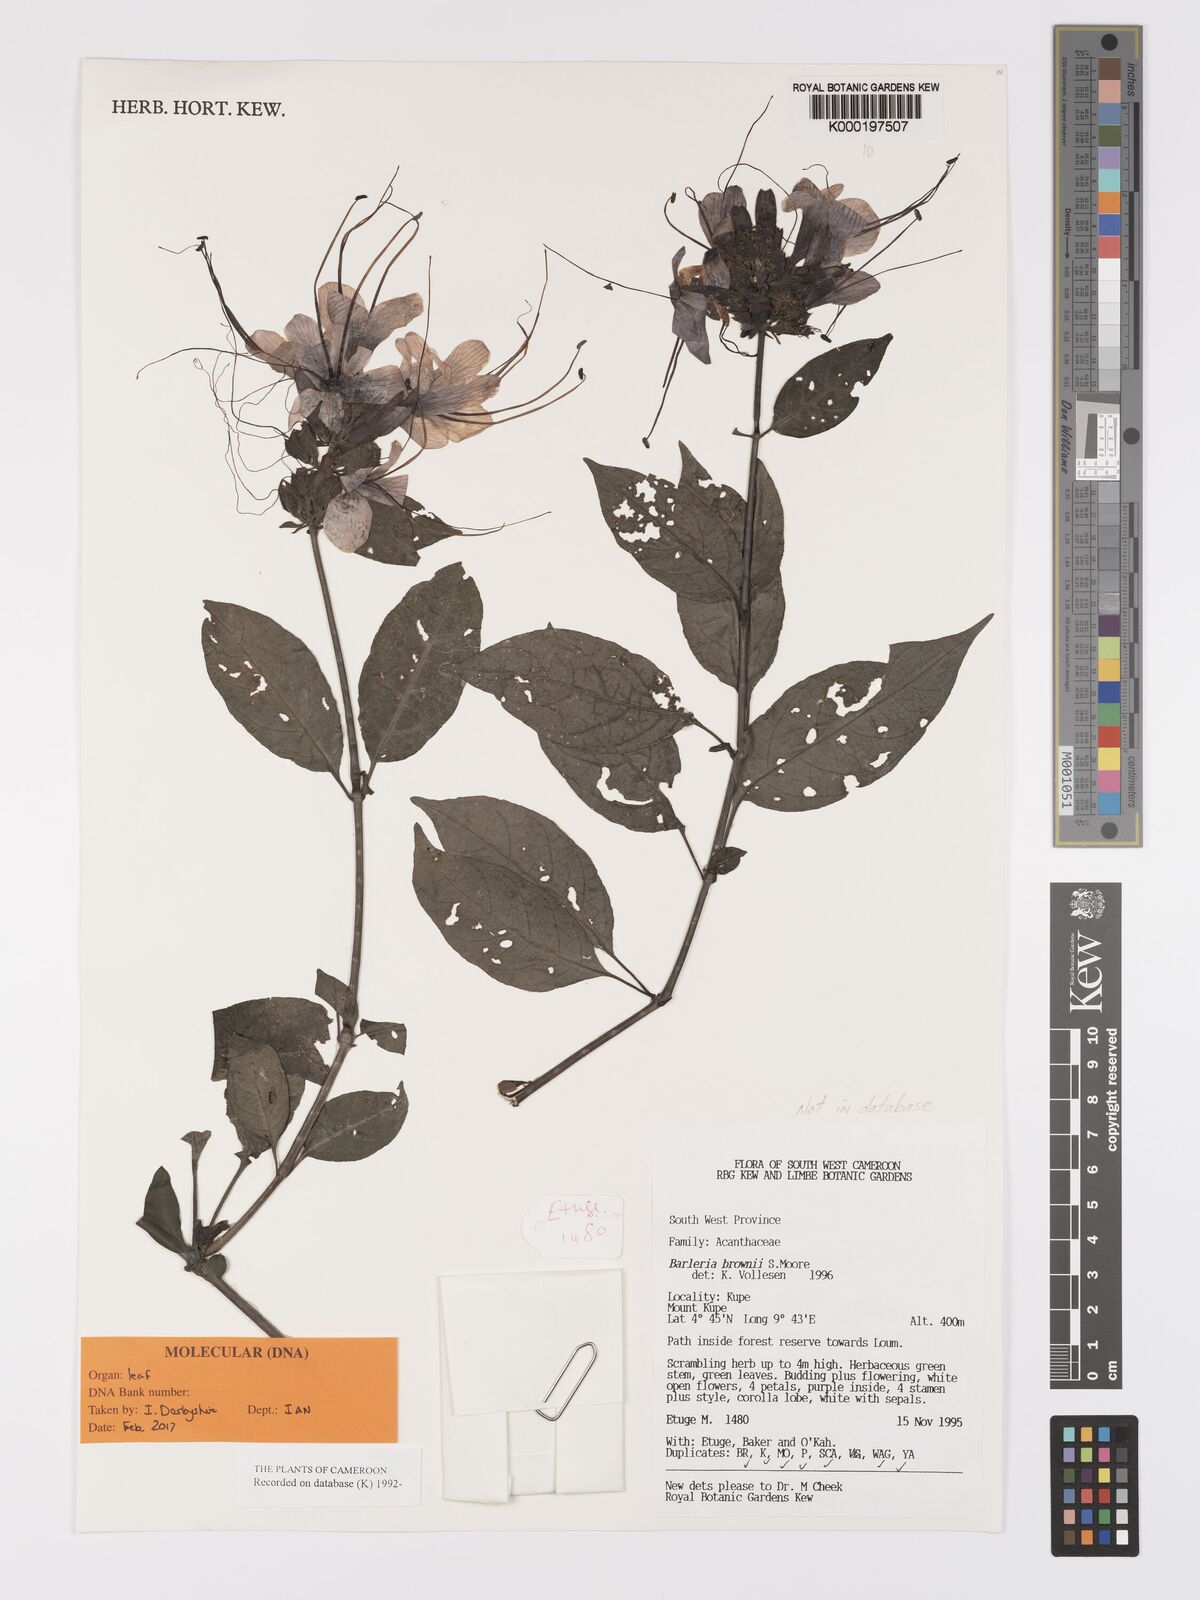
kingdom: Plantae
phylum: Tracheophyta
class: Magnoliopsida
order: Lamiales
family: Acanthaceae
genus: Barleria
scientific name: Barleria brownii
